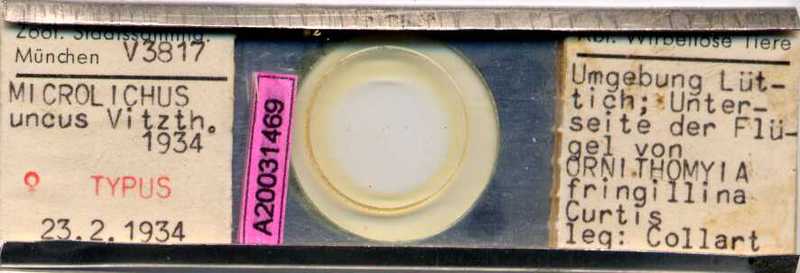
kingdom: Animalia
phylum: Arthropoda
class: Arachnida
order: Sarcoptiformes
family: Epidermoptidae
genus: Promyialges
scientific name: Promyialges uncus
